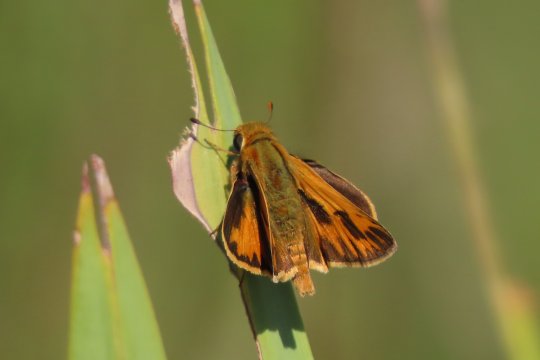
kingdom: Animalia
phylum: Arthropoda
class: Insecta
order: Lepidoptera
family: Hesperiidae
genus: Hylephila
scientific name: Hylephila phyleus
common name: Fiery Skipper
